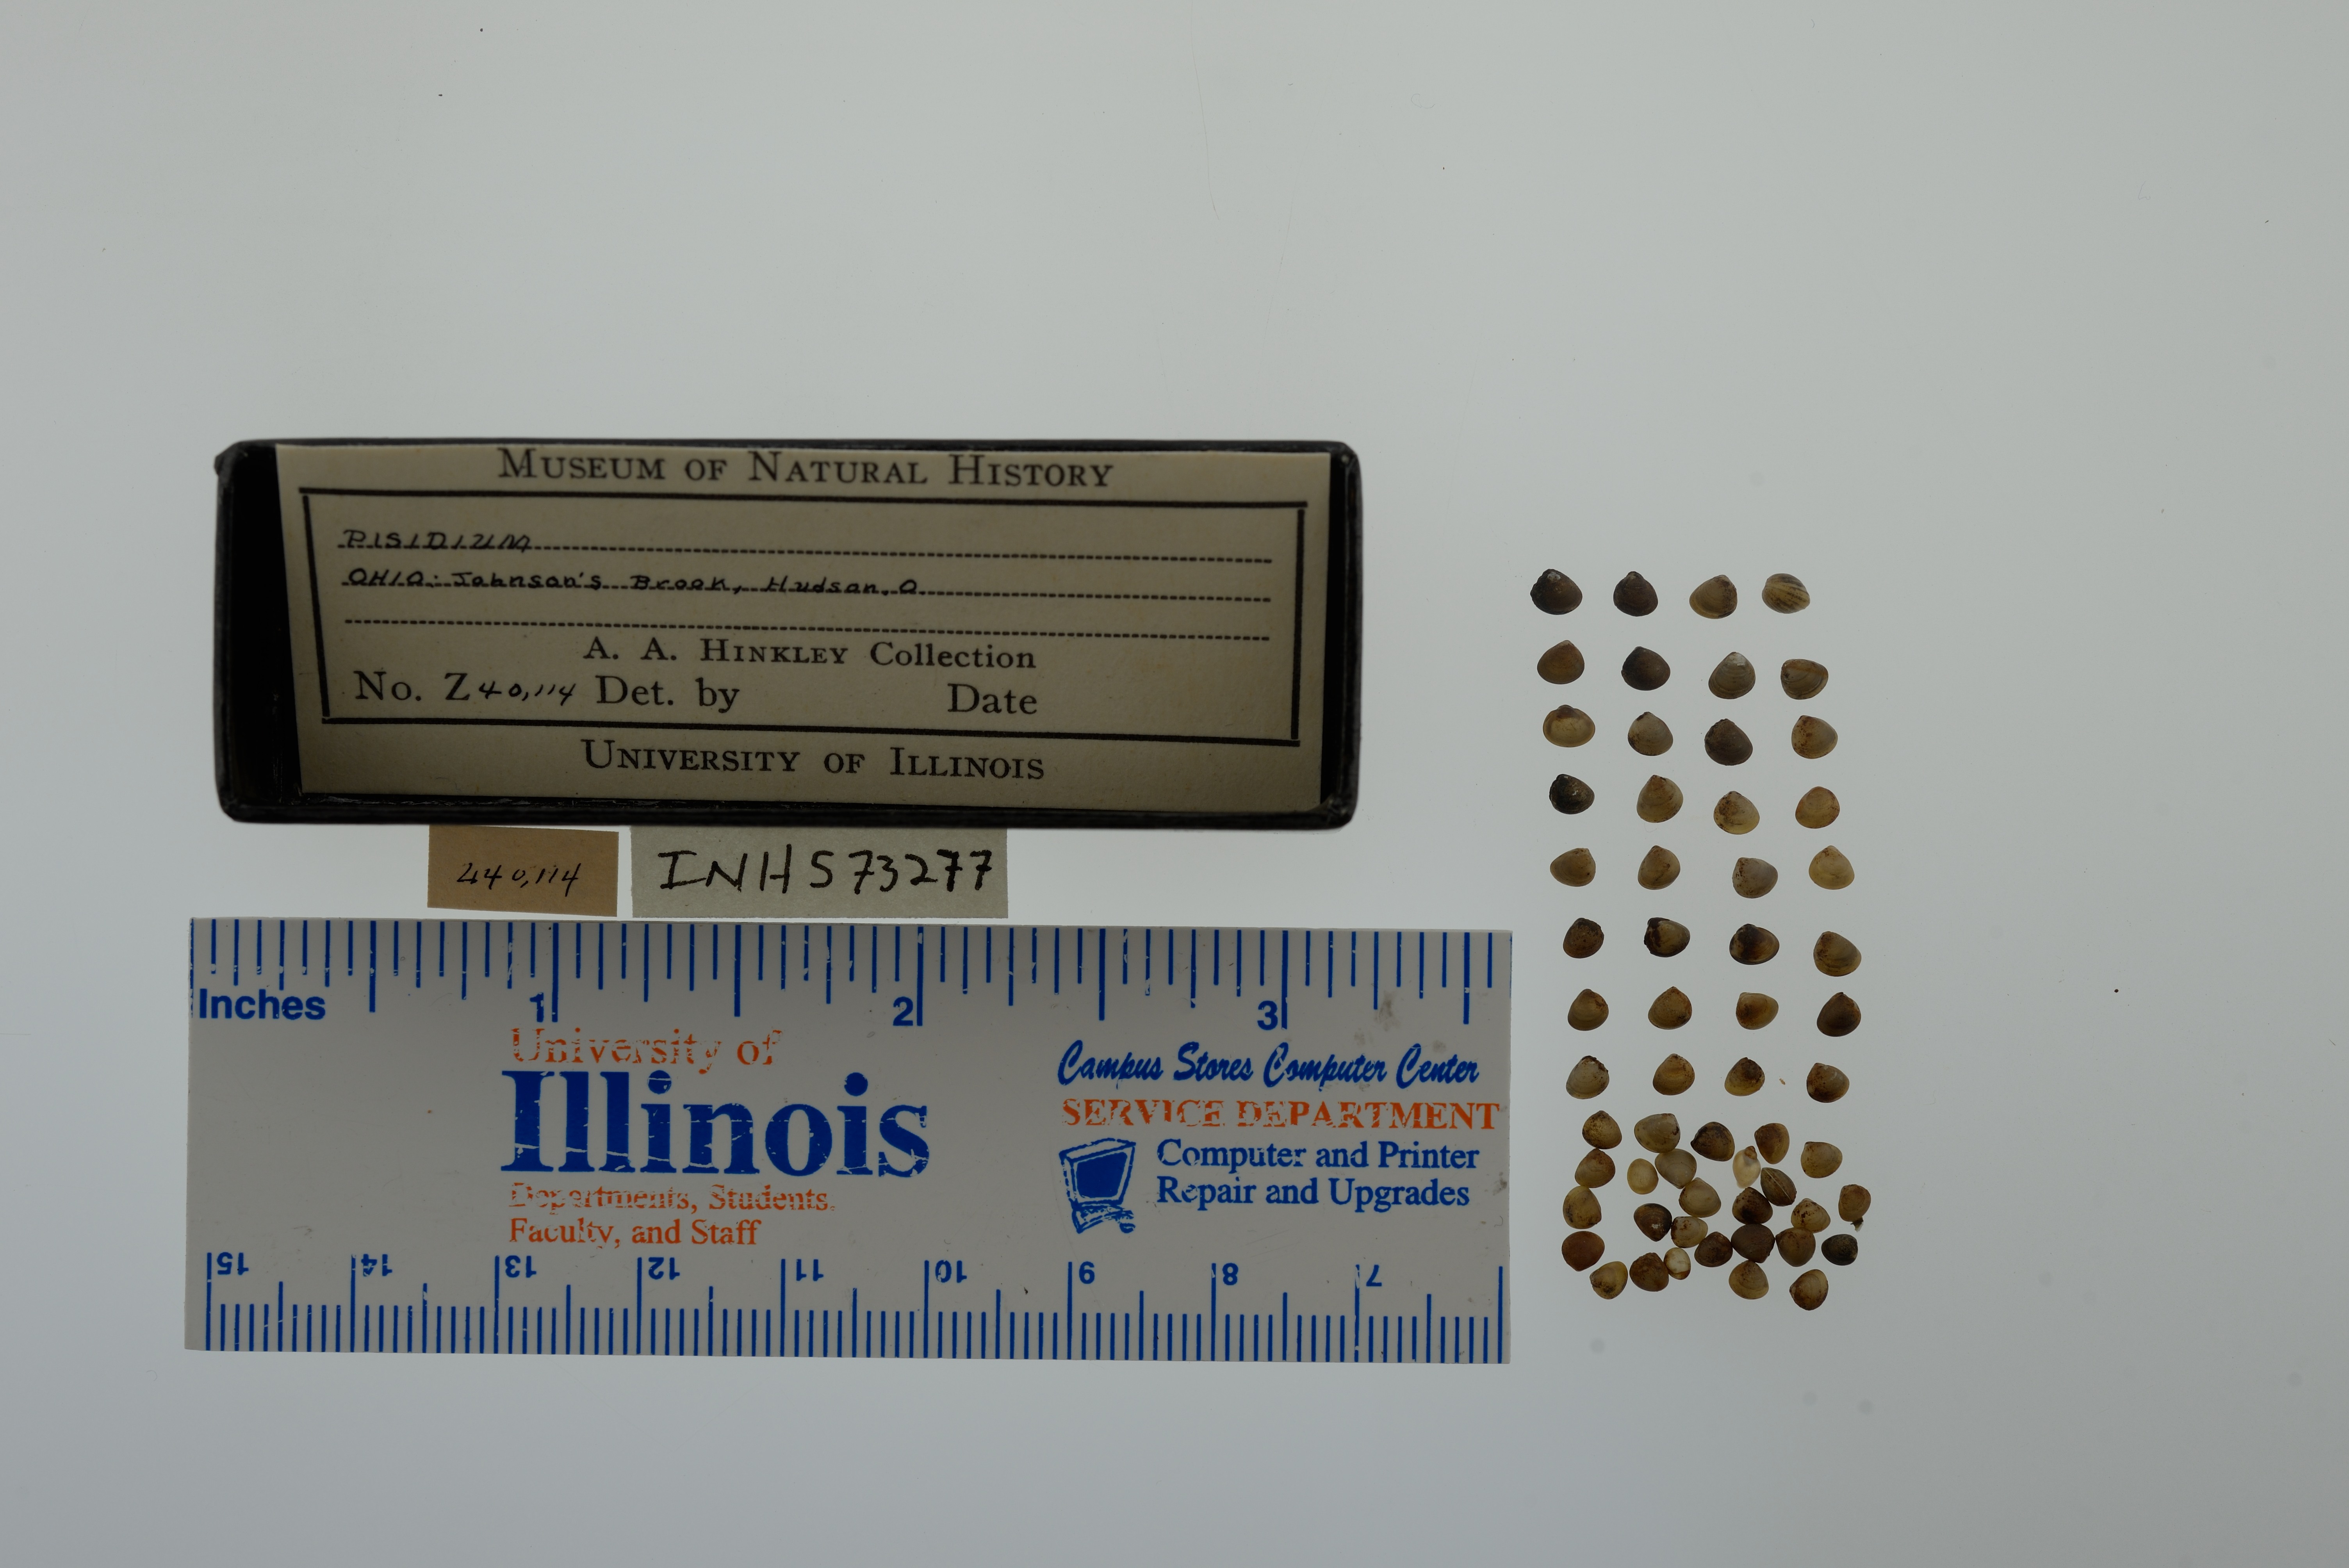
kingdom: Animalia
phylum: Mollusca
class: Bivalvia
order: Sphaeriida
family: Sphaeriidae
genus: Pisidium
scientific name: Pisidium
